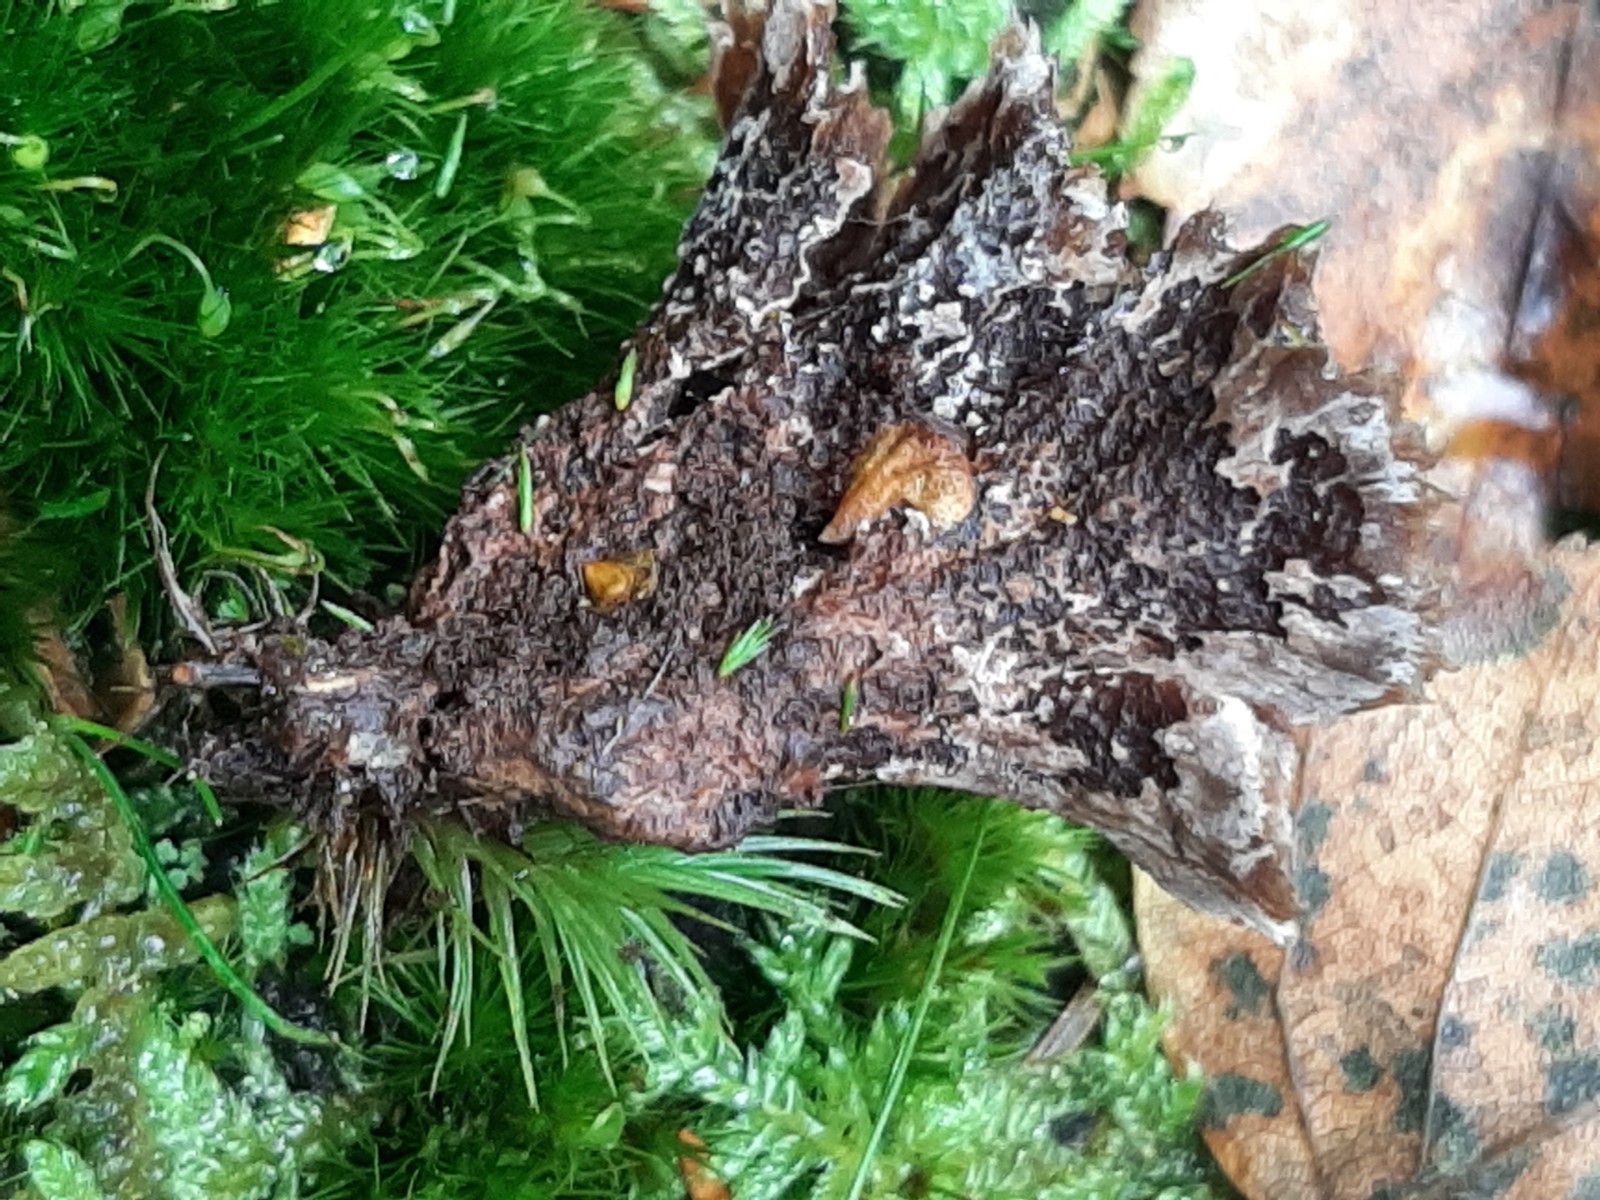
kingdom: Fungi
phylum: Basidiomycota
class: Agaricomycetes
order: Thelephorales
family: Thelephoraceae
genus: Thelephora
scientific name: Thelephora terrestris
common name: fliget frynsesvamp
